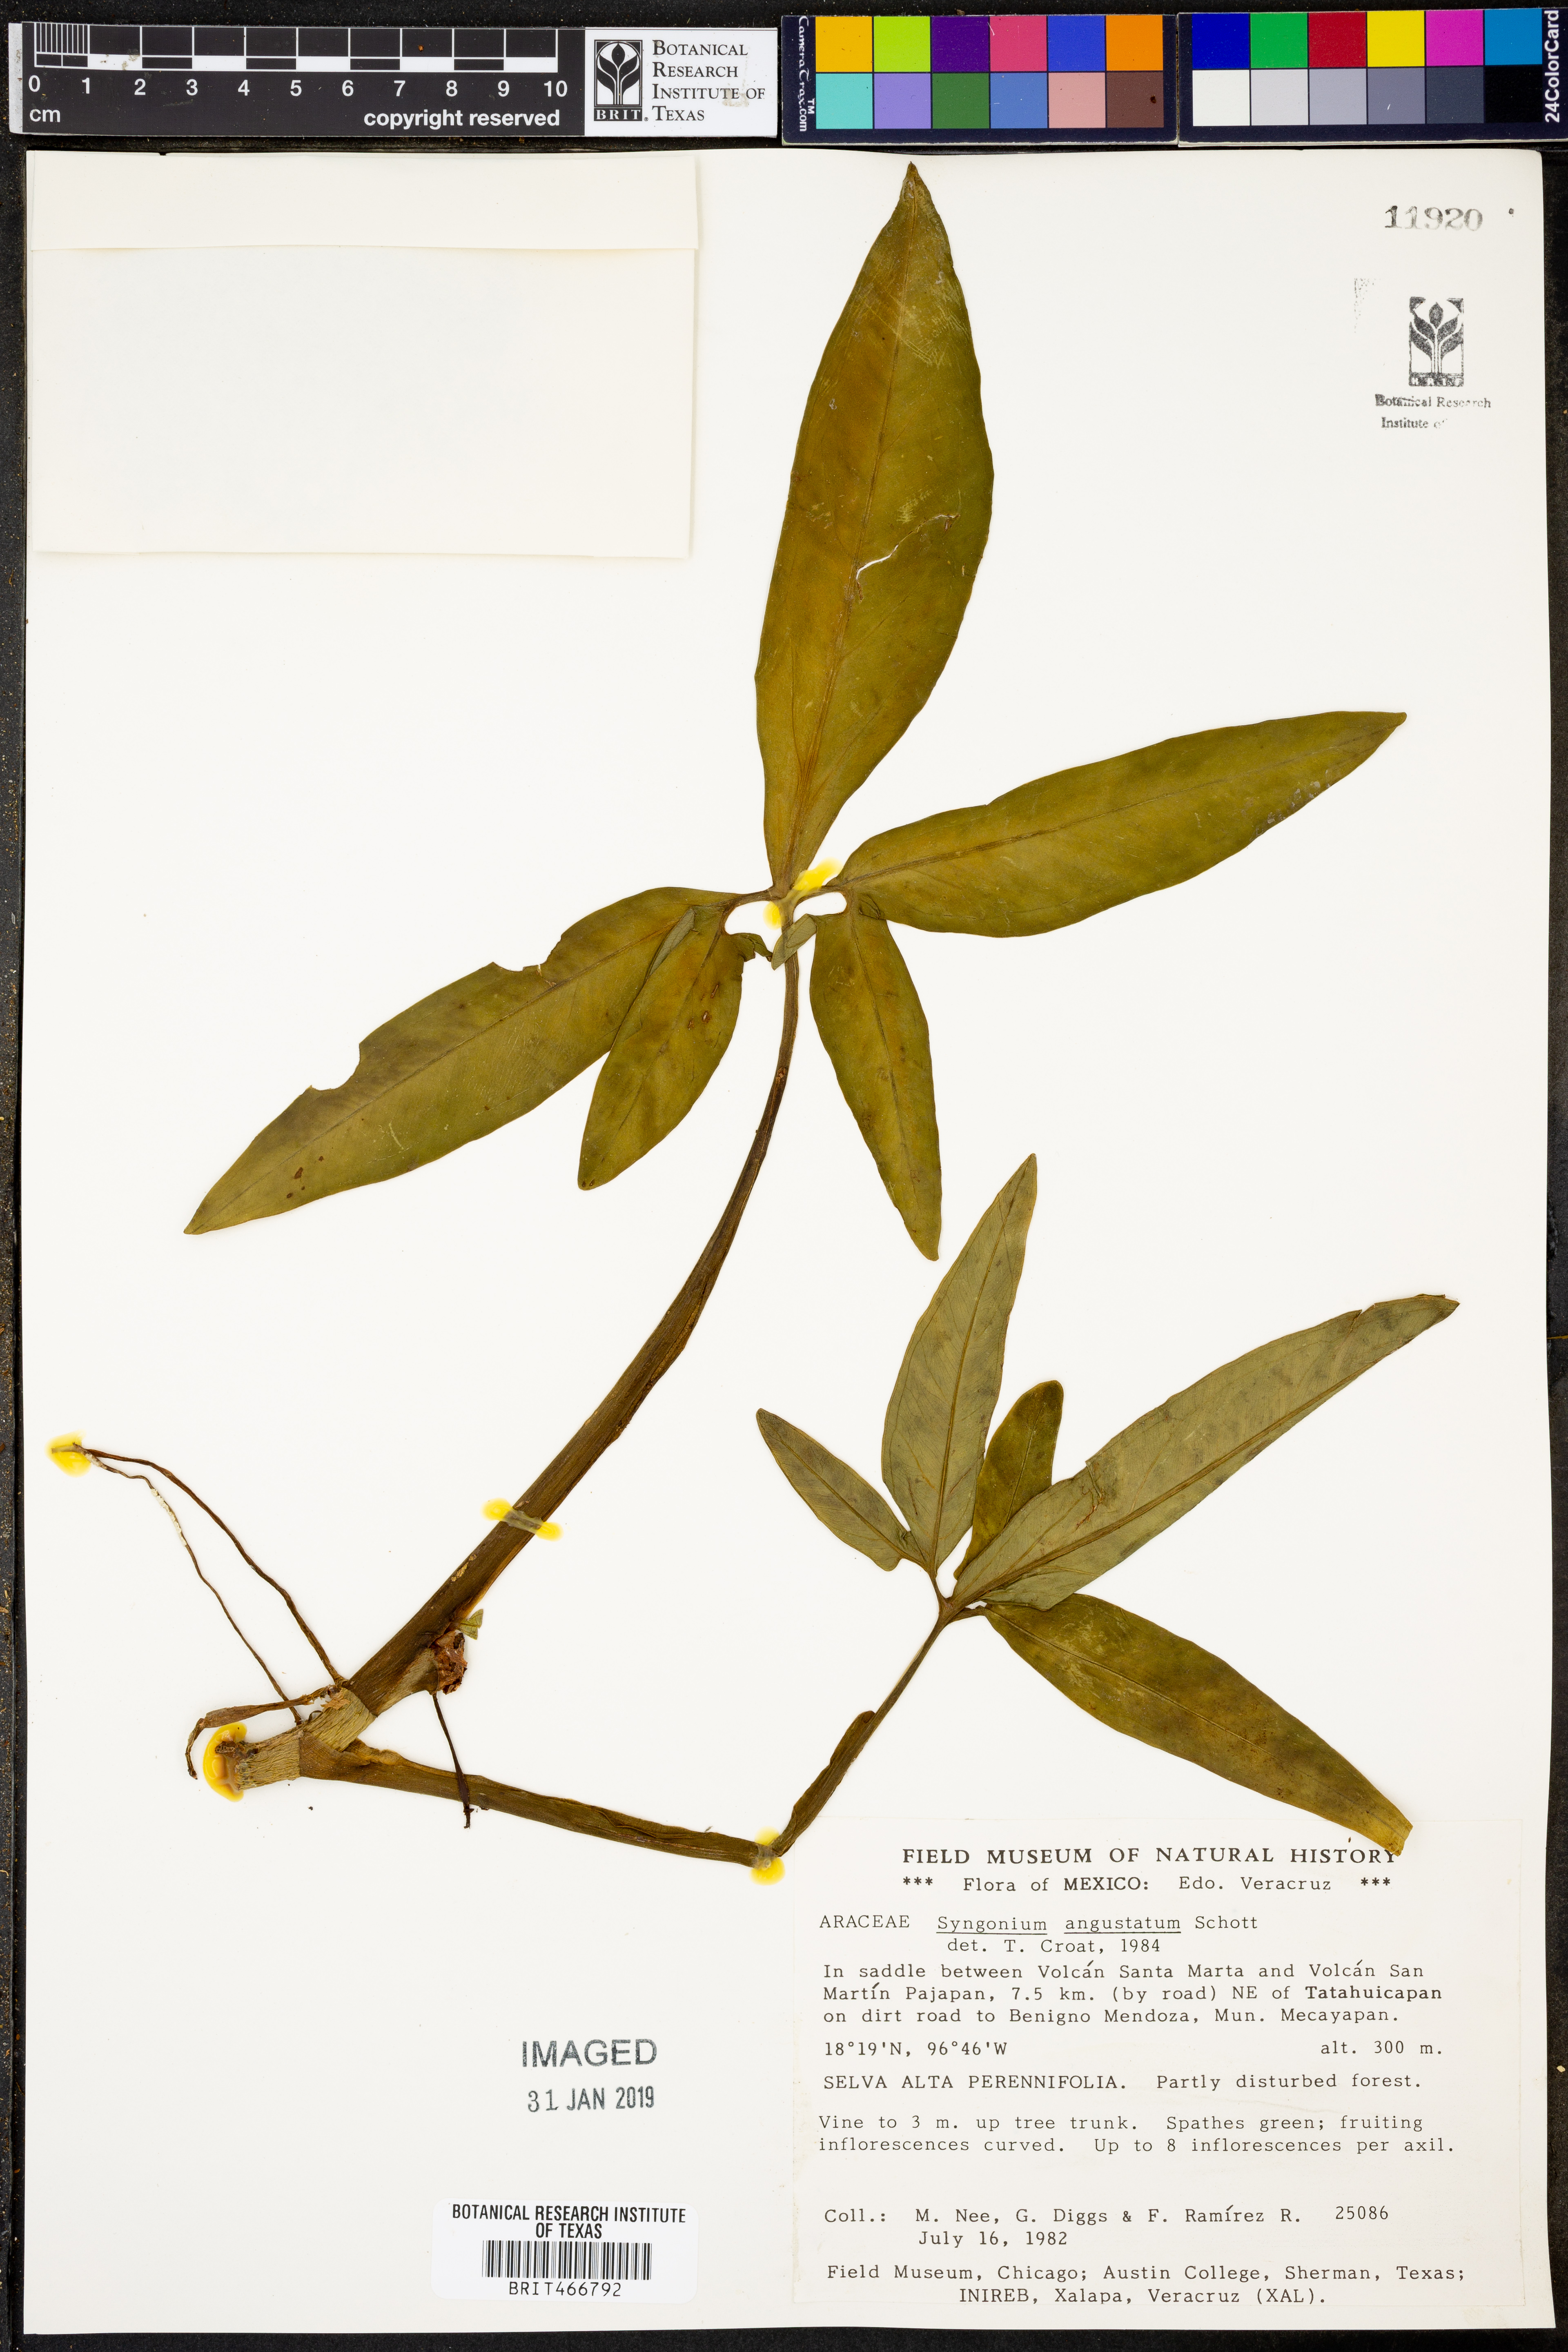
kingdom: Plantae
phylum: Tracheophyta
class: Liliopsida
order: Alismatales
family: Araceae
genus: Syngonium
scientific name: Syngonium angustatum
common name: Fivefingers
